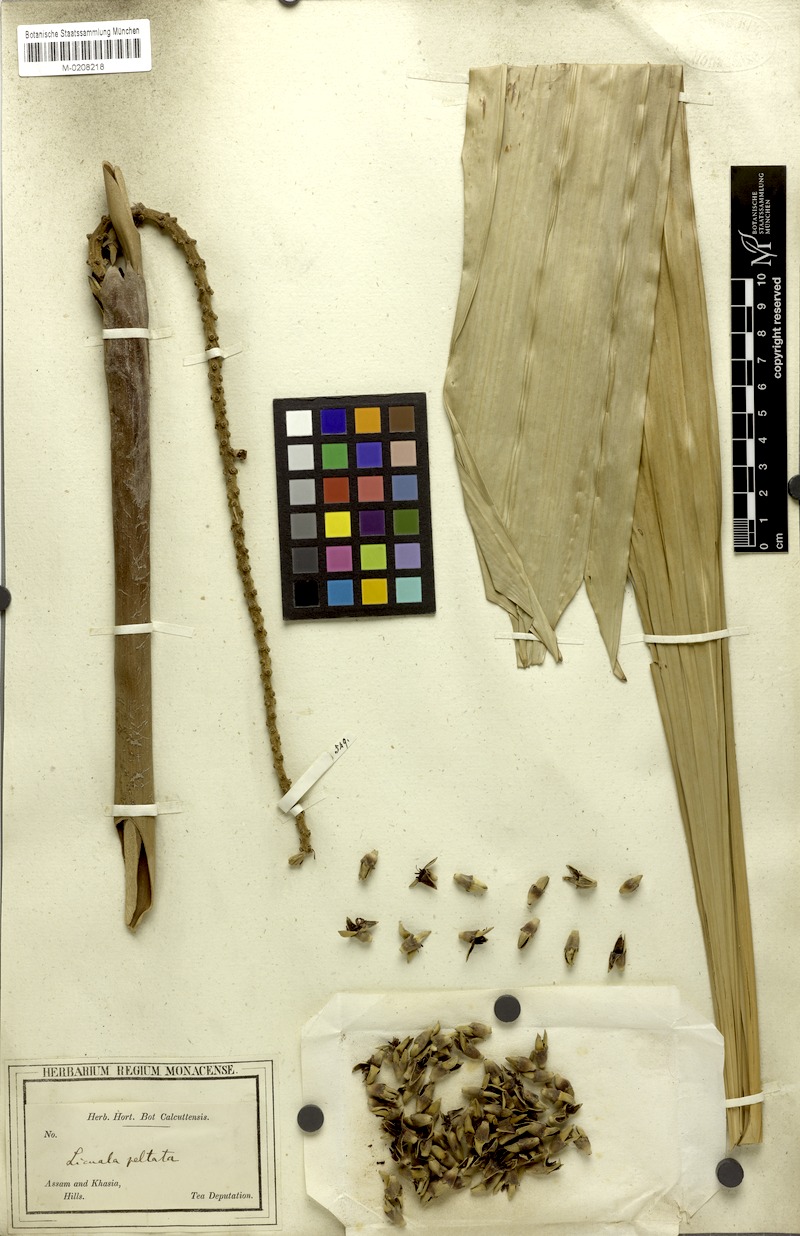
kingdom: Plantae
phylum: Tracheophyta
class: Liliopsida
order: Arecales
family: Arecaceae
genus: Licuala
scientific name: Licuala peltata
